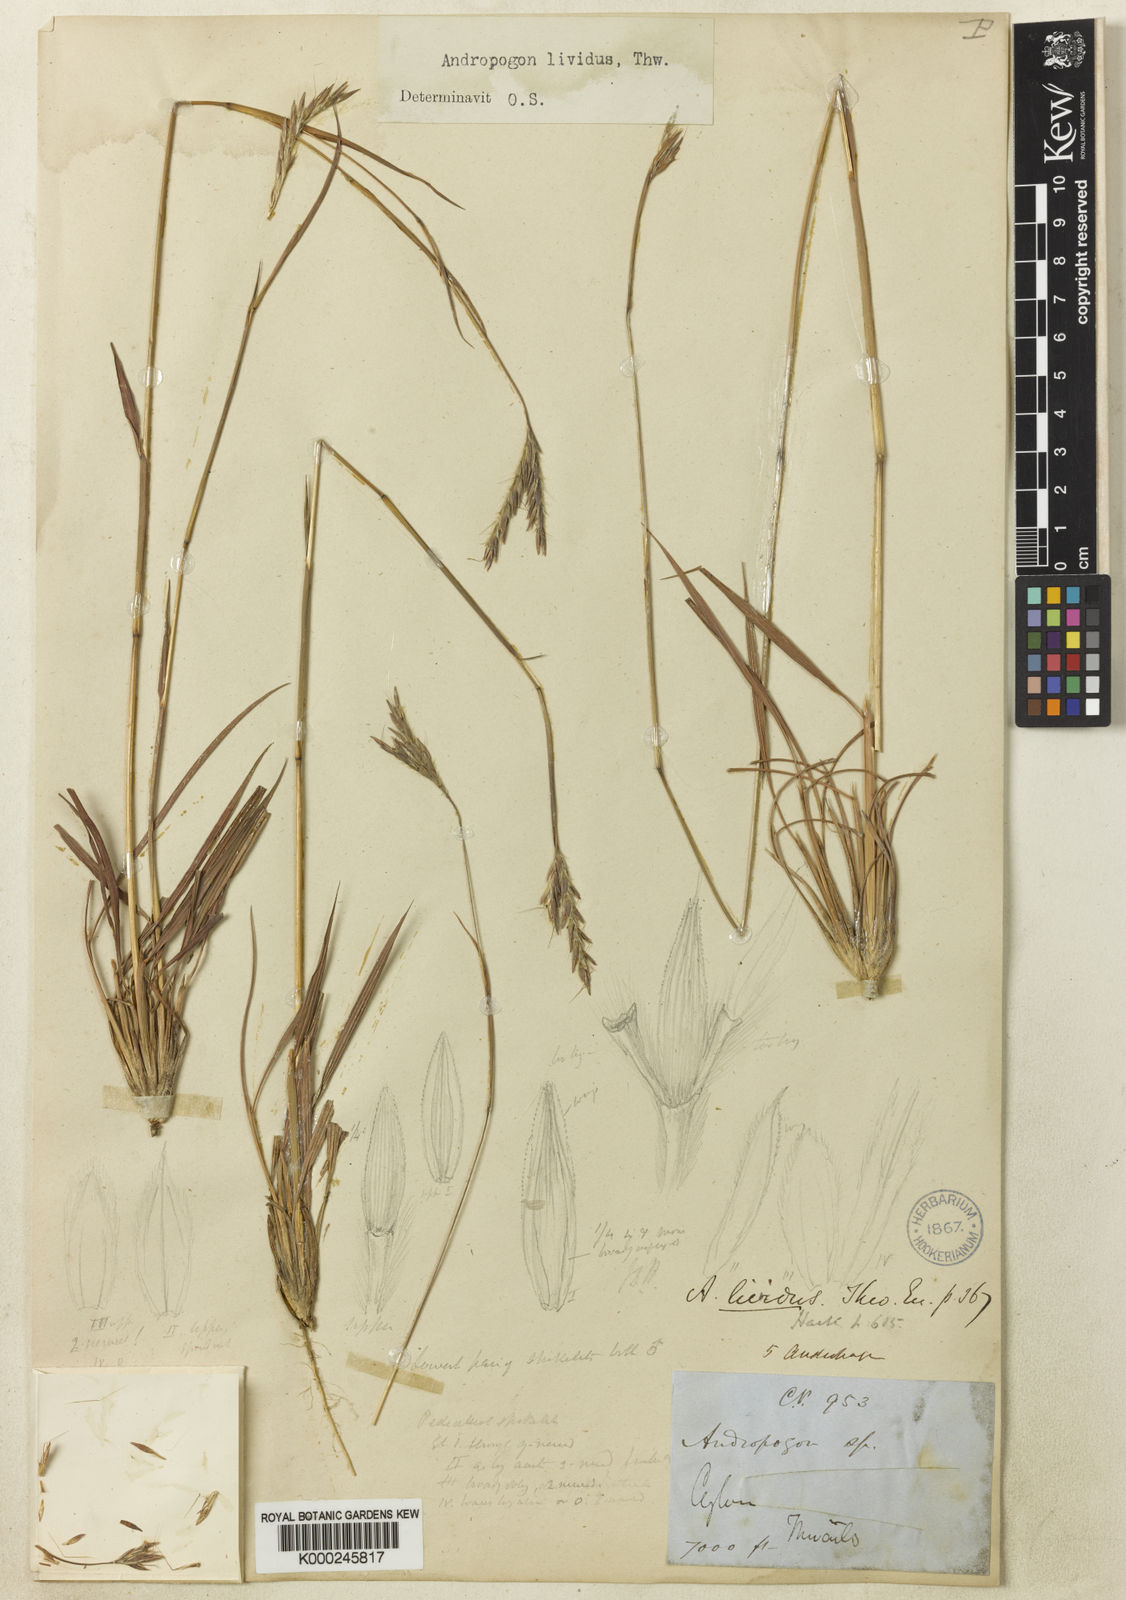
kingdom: Plantae
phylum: Tracheophyta
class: Liliopsida
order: Poales
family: Poaceae
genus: Andropogon
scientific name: Andropogon lividus
